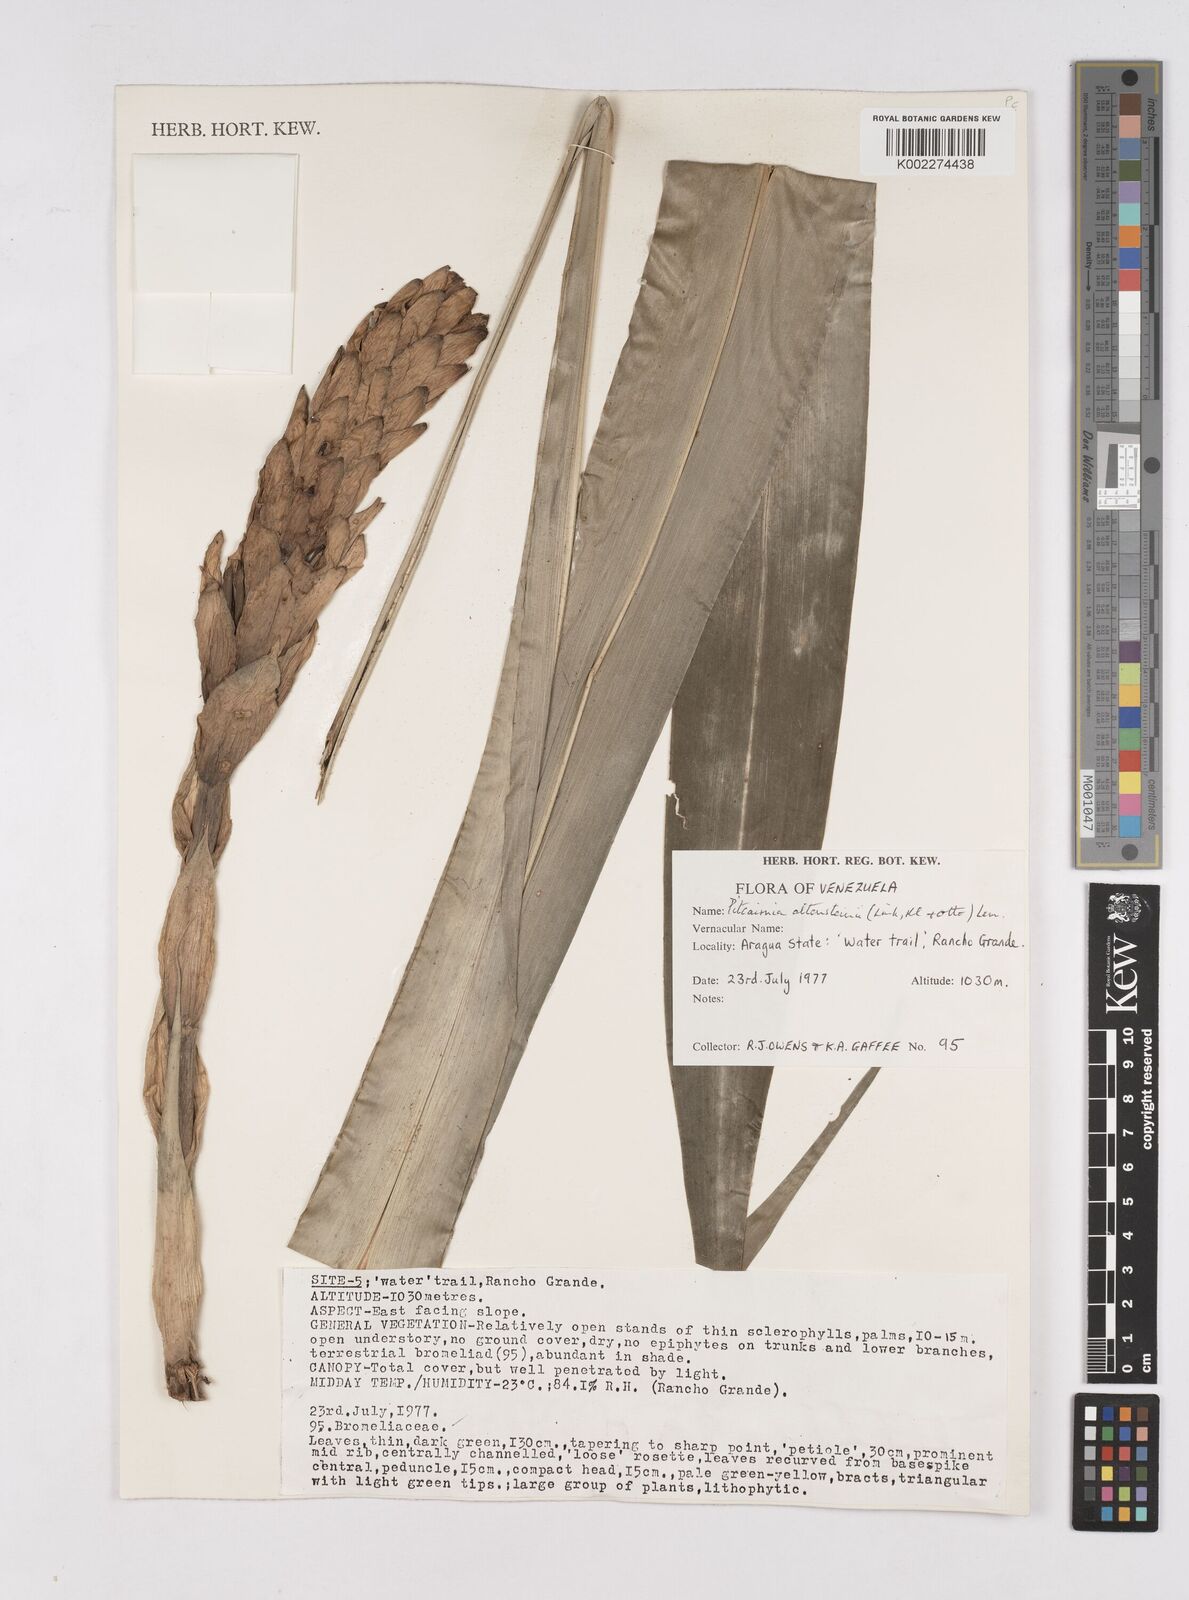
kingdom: Plantae
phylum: Tracheophyta
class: Liliopsida
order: Poales
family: Bromeliaceae
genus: Pitcairnia
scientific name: Pitcairnia altensteinii
